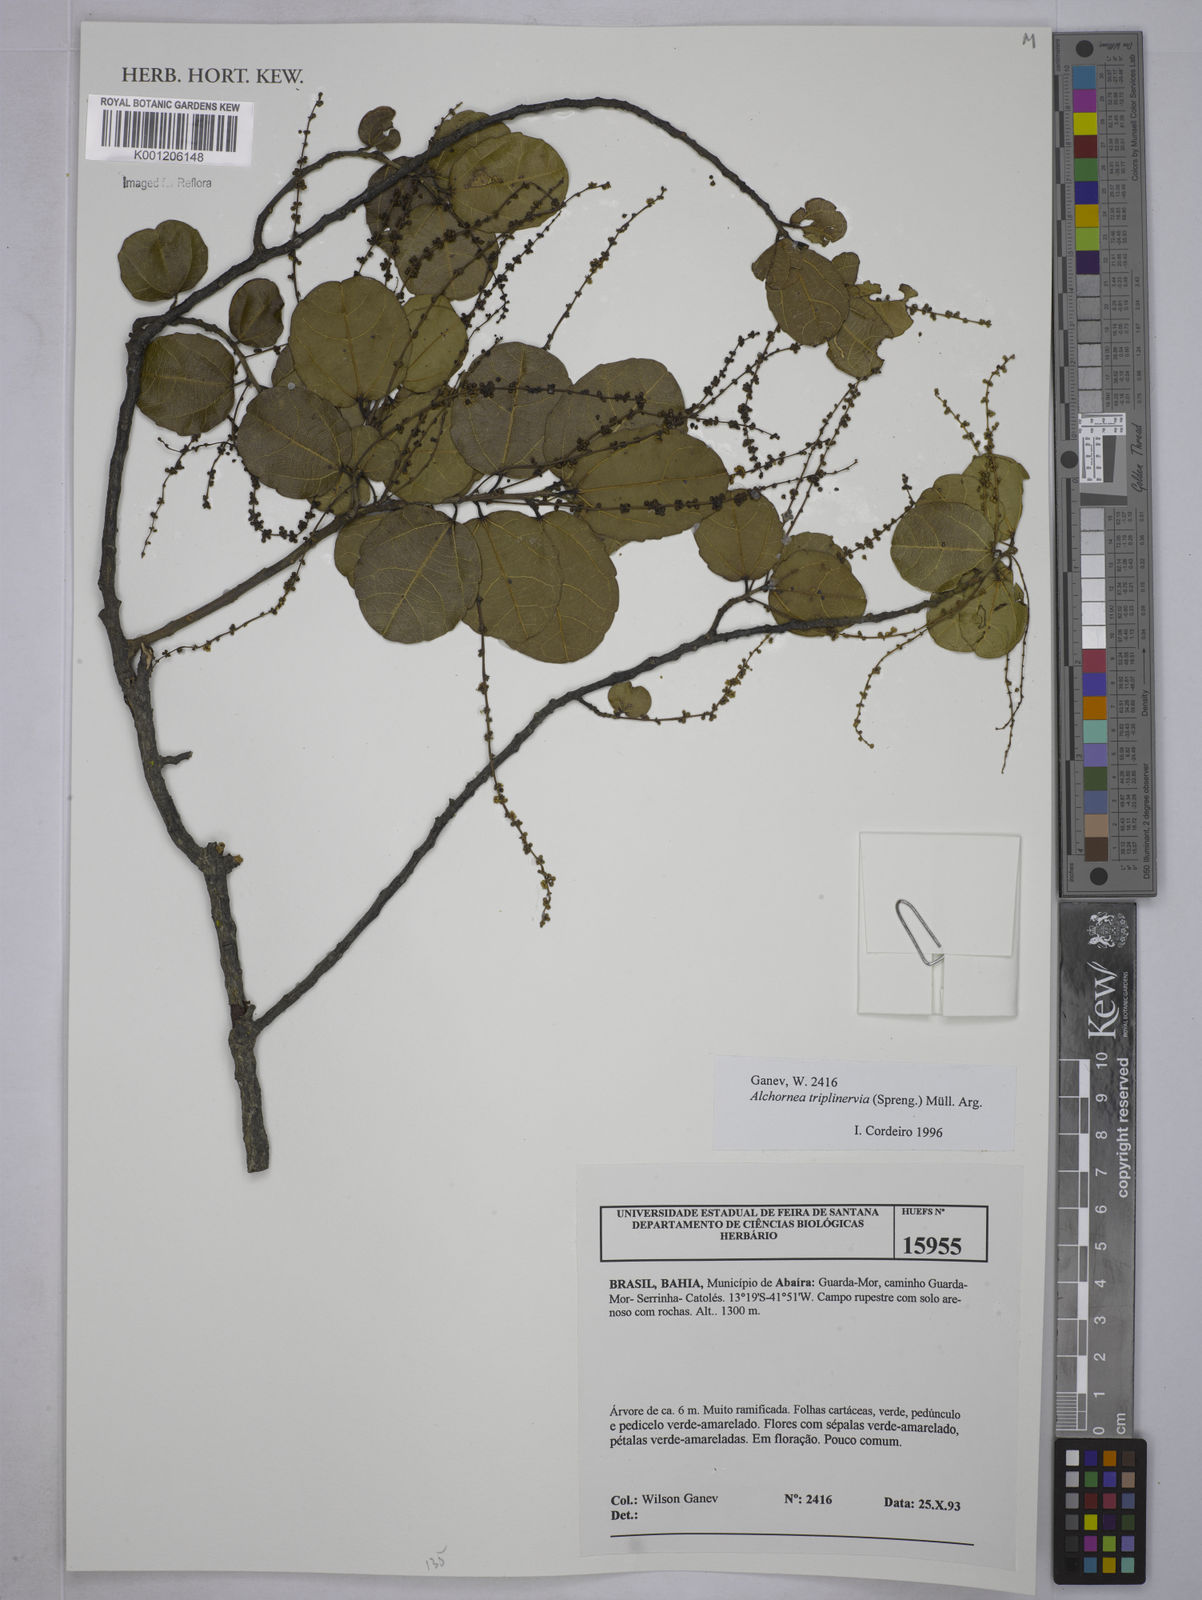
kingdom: Plantae
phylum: Tracheophyta
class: Magnoliopsida
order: Malpighiales
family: Euphorbiaceae
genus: Alchornea
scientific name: Alchornea
